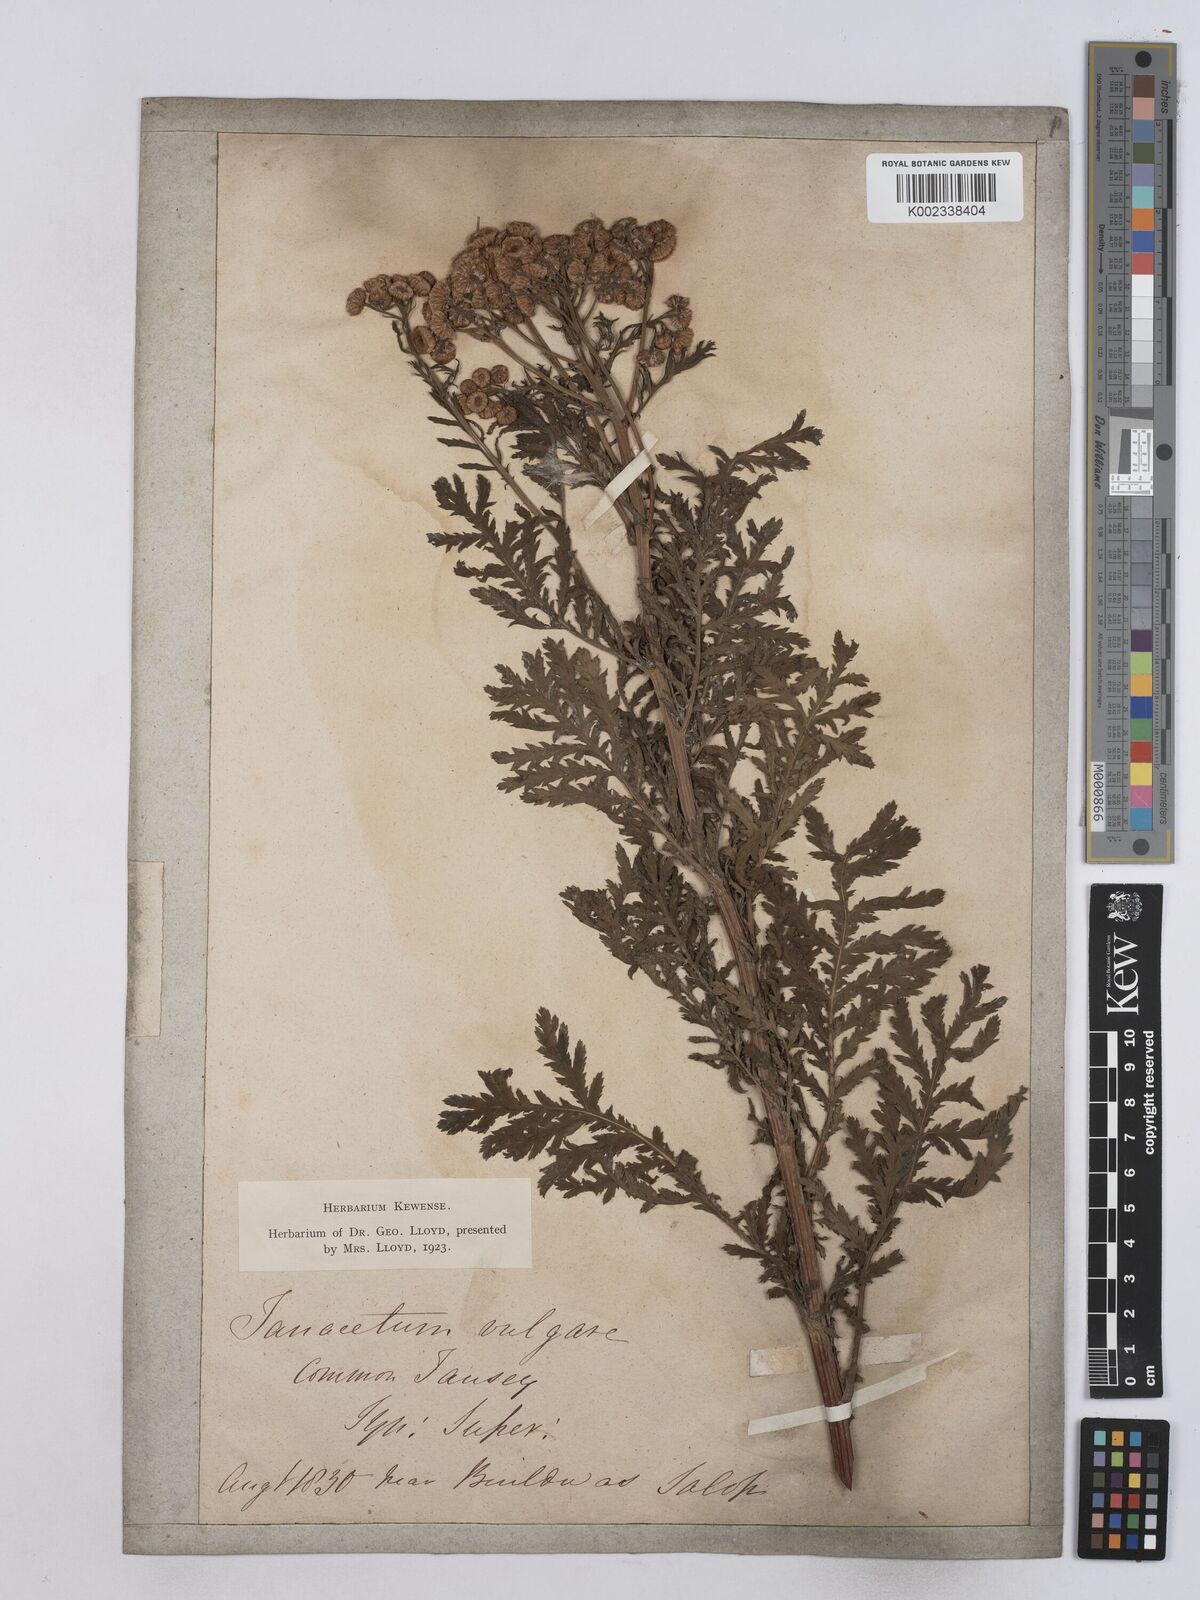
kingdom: Plantae
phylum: Tracheophyta
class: Magnoliopsida
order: Asterales
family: Asteraceae
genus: Tanacetum
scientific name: Tanacetum vulgare
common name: Common tansy
